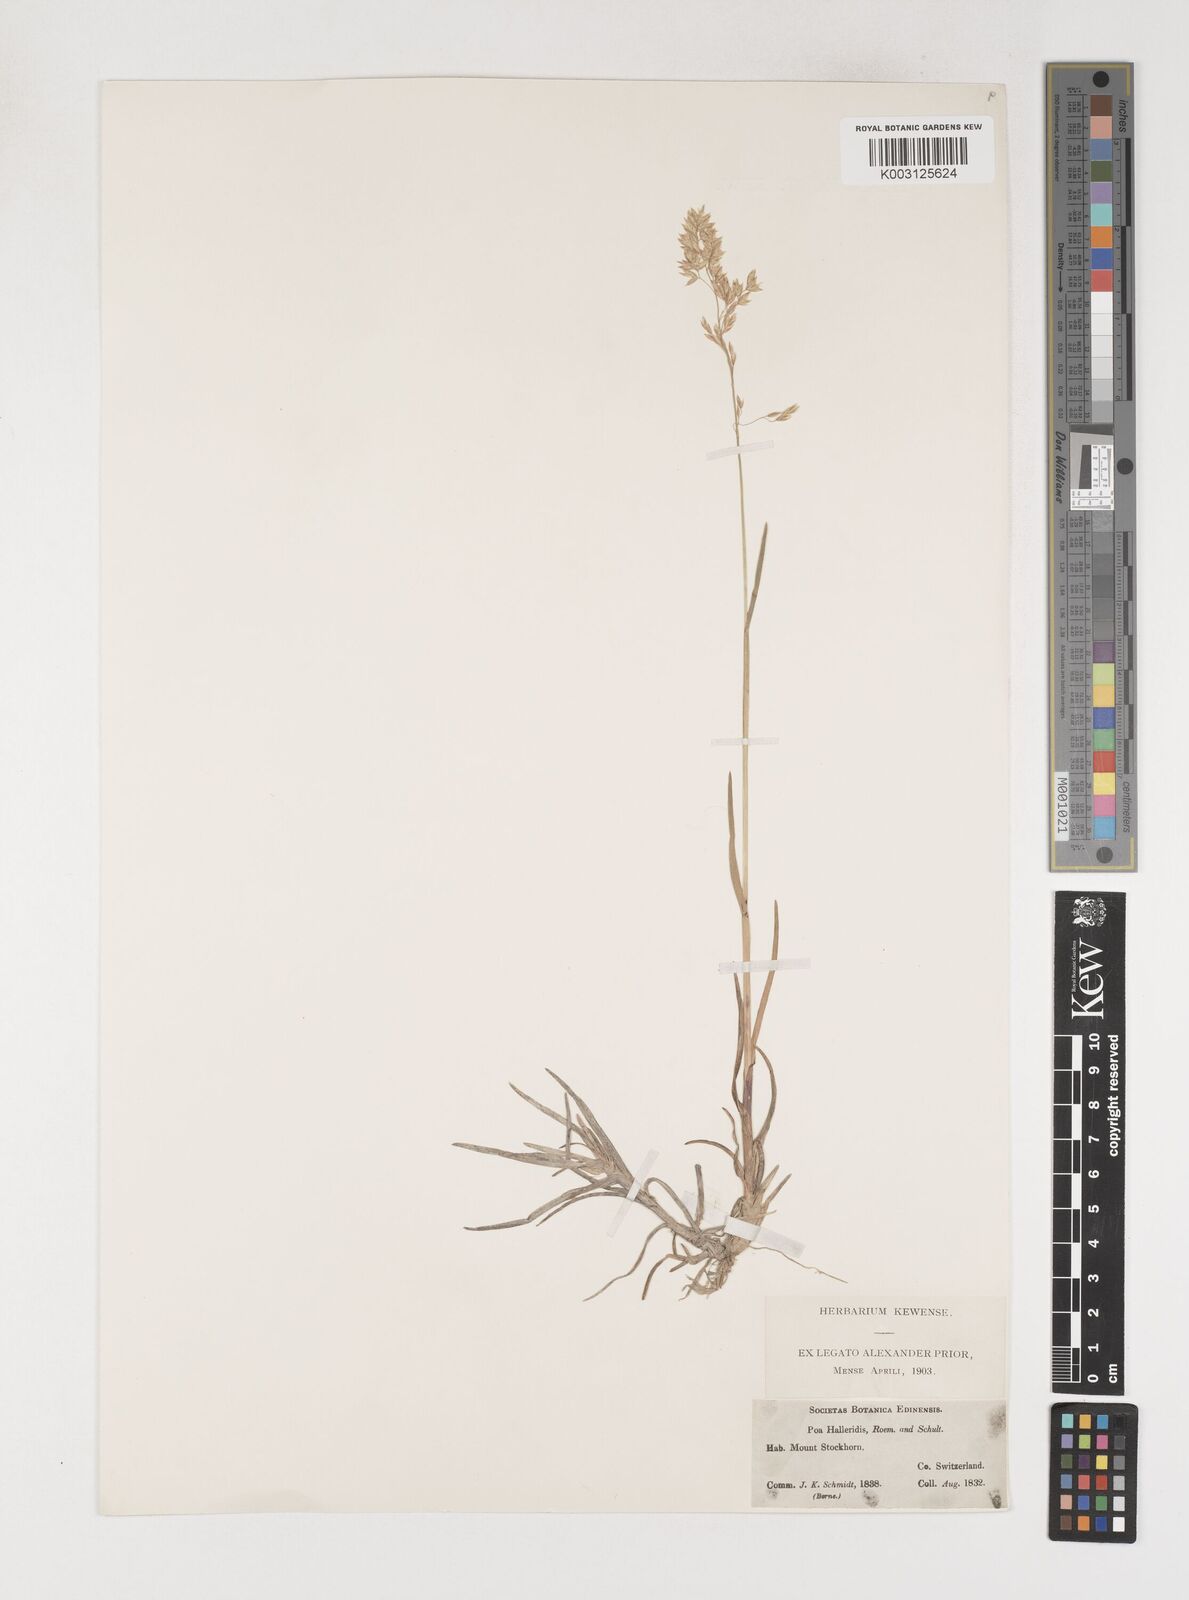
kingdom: Plantae
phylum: Tracheophyta
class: Liliopsida
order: Poales
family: Poaceae
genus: Poa
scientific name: Poa cenisia
